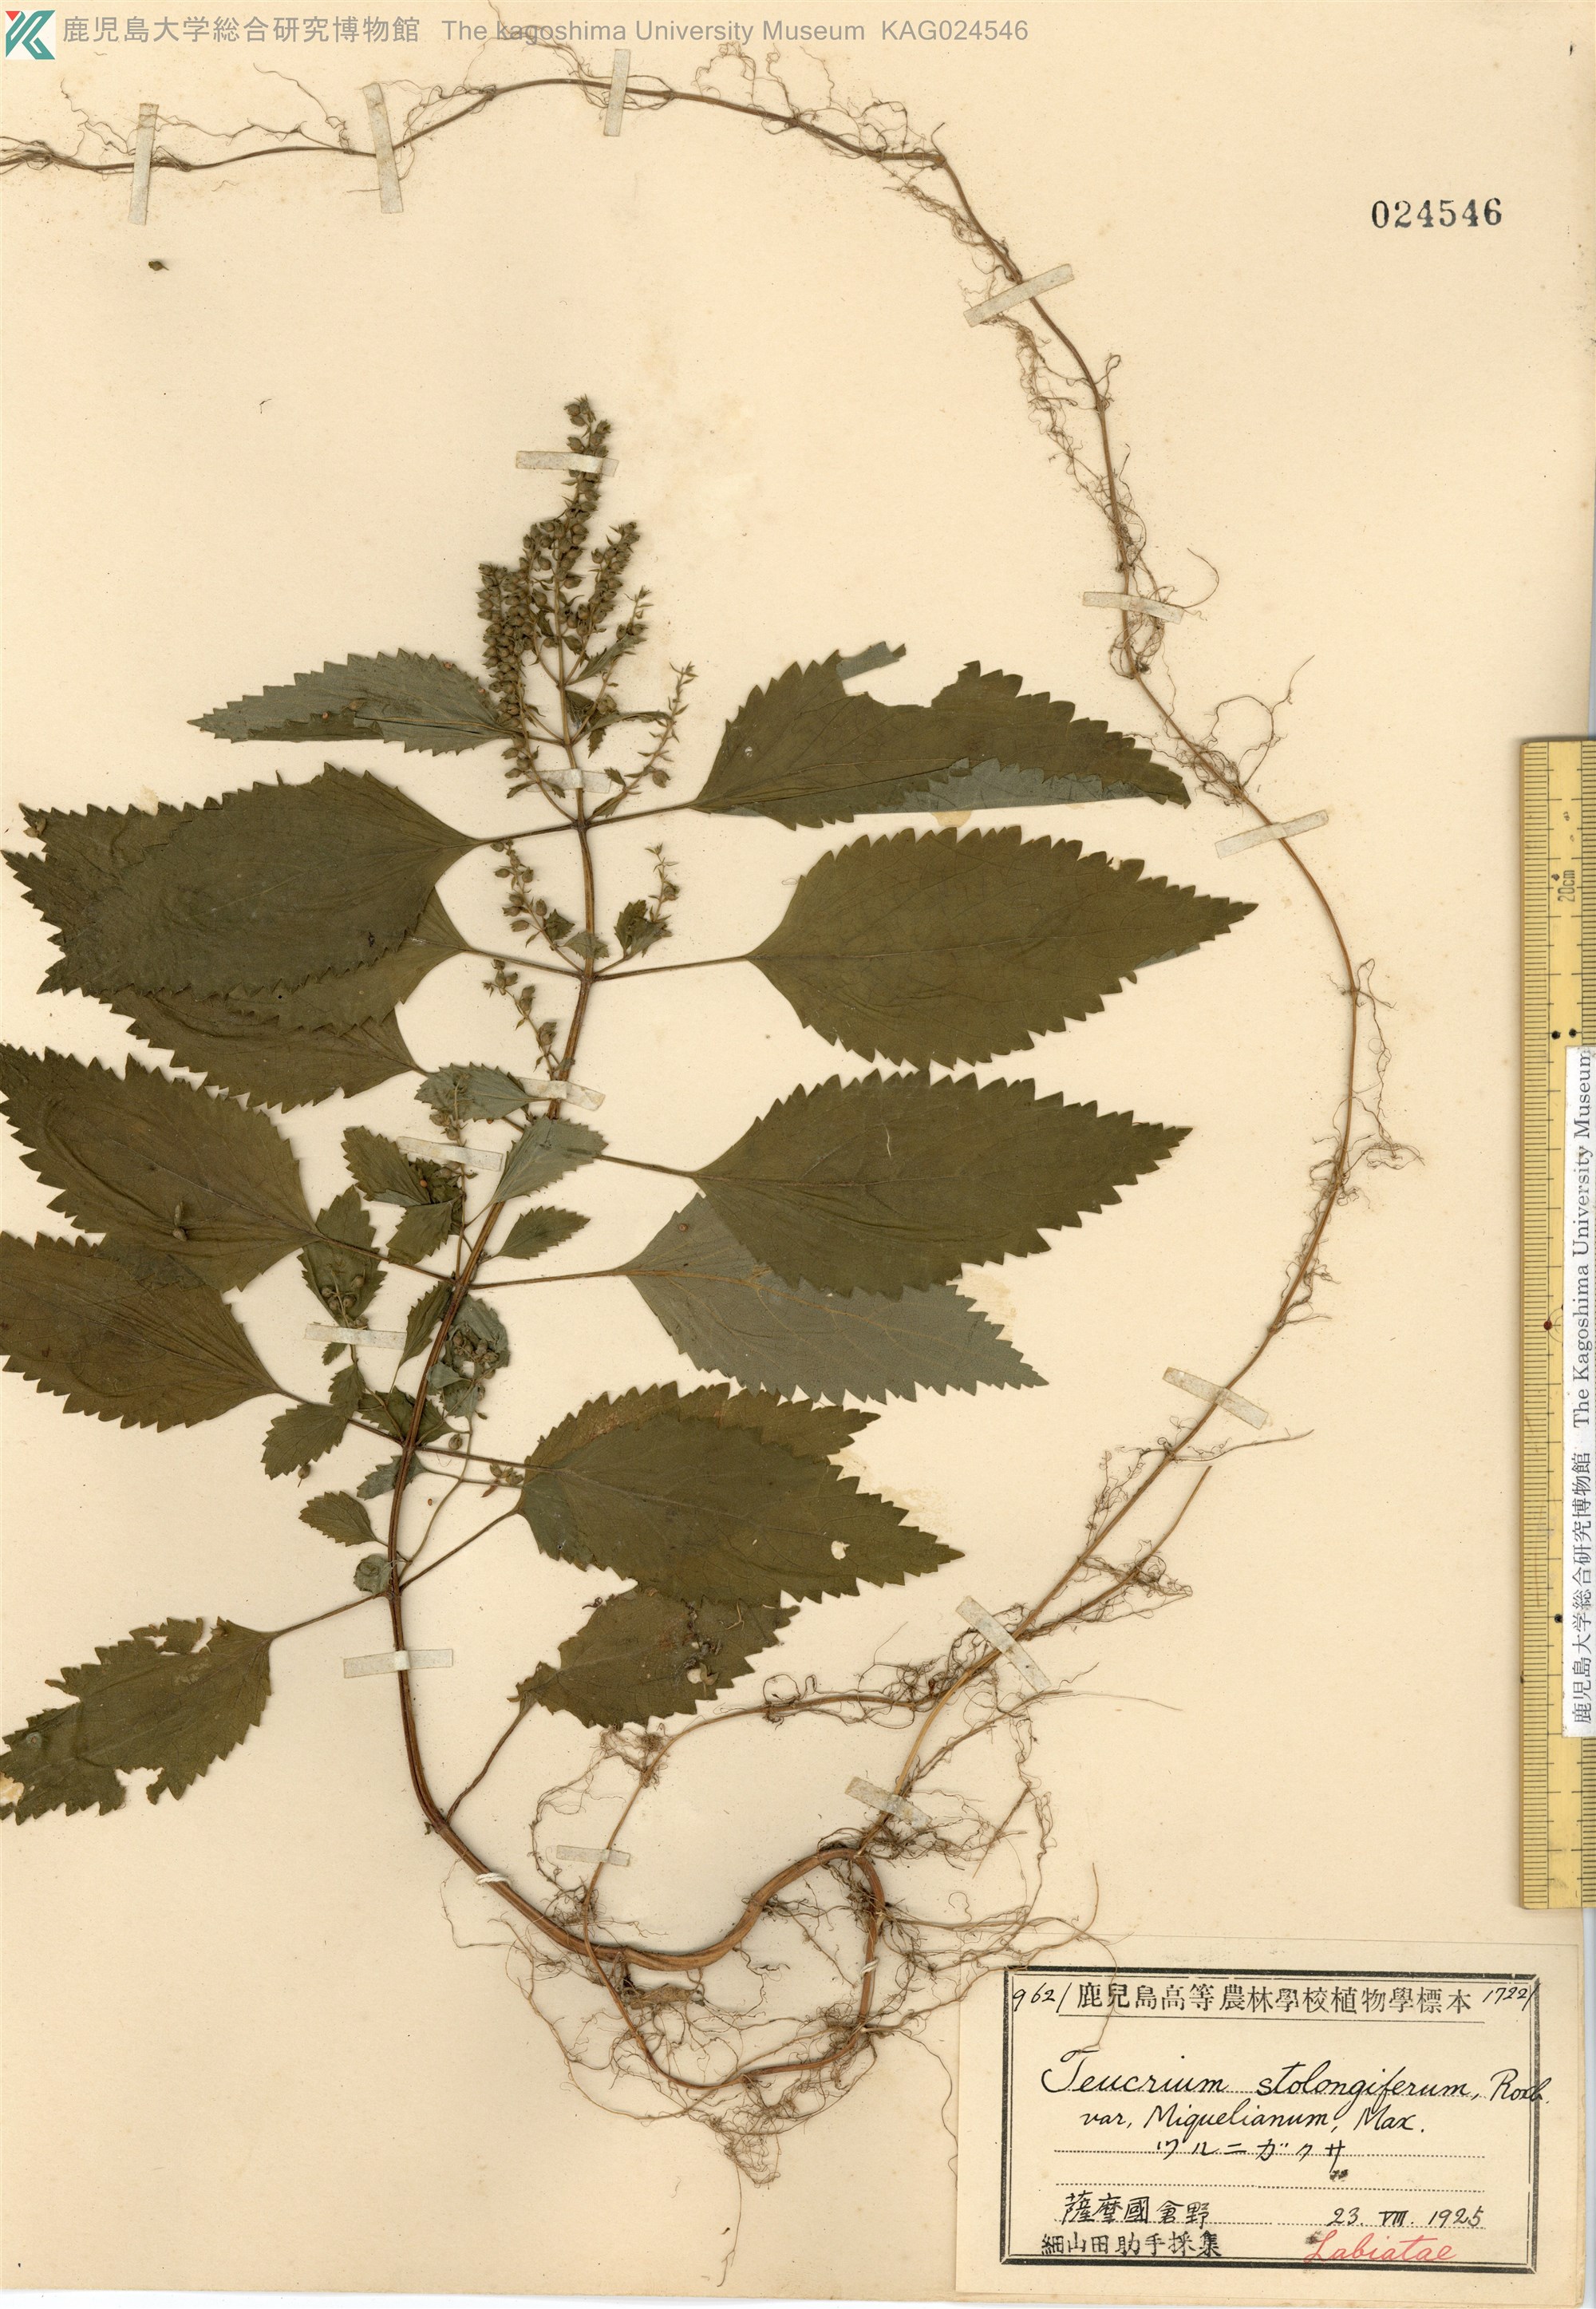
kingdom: Plantae
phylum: Tracheophyta
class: Magnoliopsida
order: Lamiales
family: Lamiaceae
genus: Teucrium
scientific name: Teucrium viscidum
